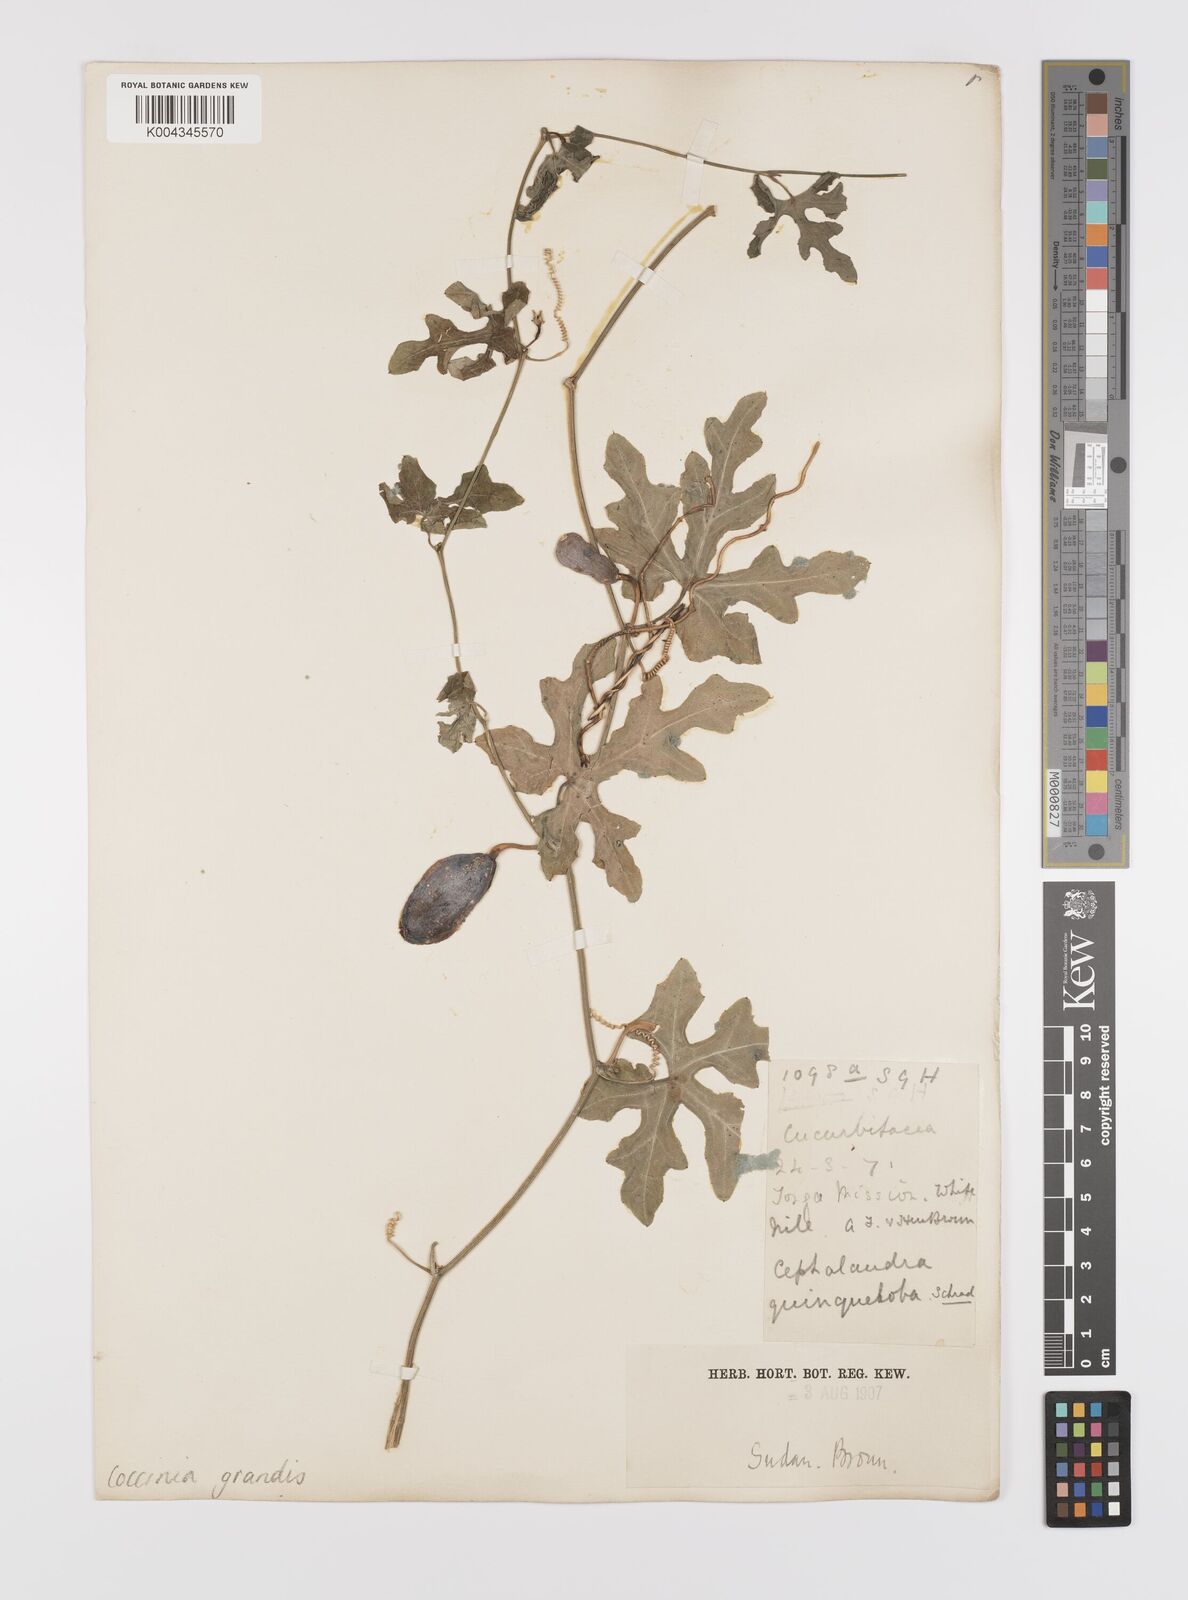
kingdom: Plantae
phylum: Tracheophyta
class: Magnoliopsida
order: Cucurbitales
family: Cucurbitaceae
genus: Coccinia
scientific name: Coccinia grandis
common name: Ivy gourd
